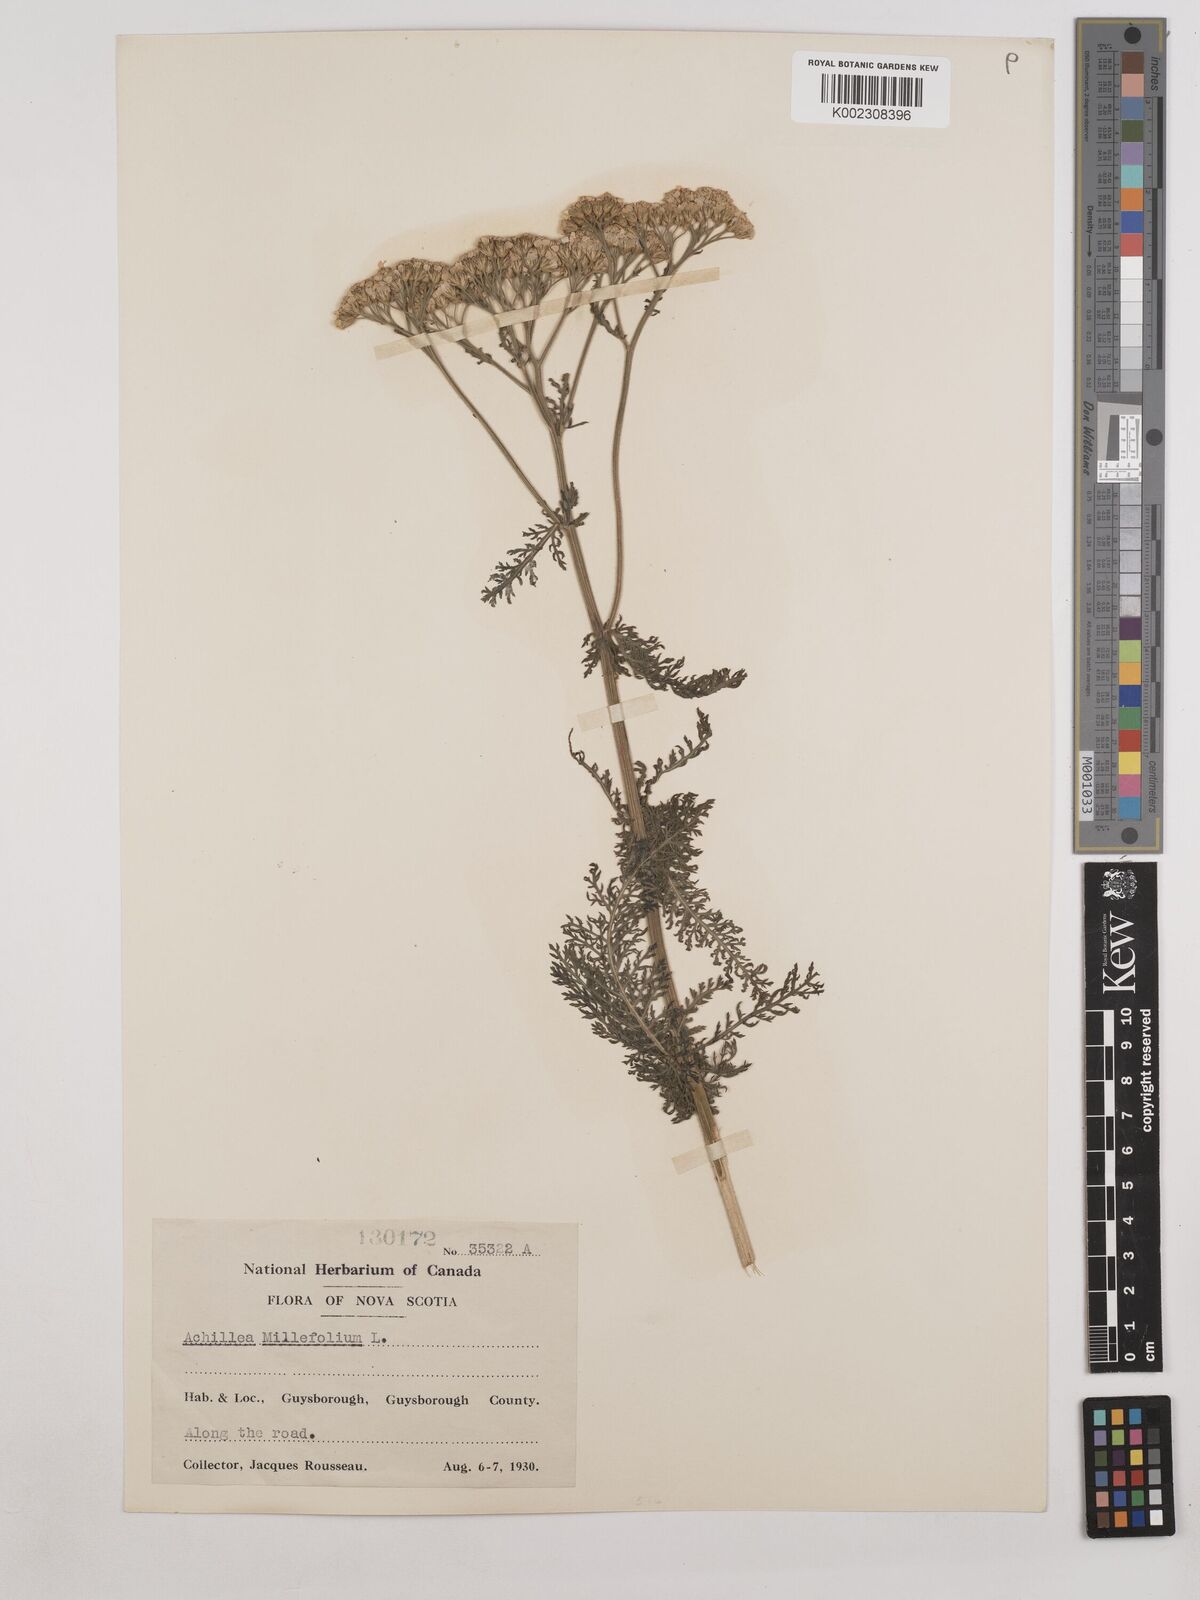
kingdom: Plantae
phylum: Tracheophyta
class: Magnoliopsida
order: Asterales
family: Asteraceae
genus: Achillea
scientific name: Achillea millefolium
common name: Yarrow
